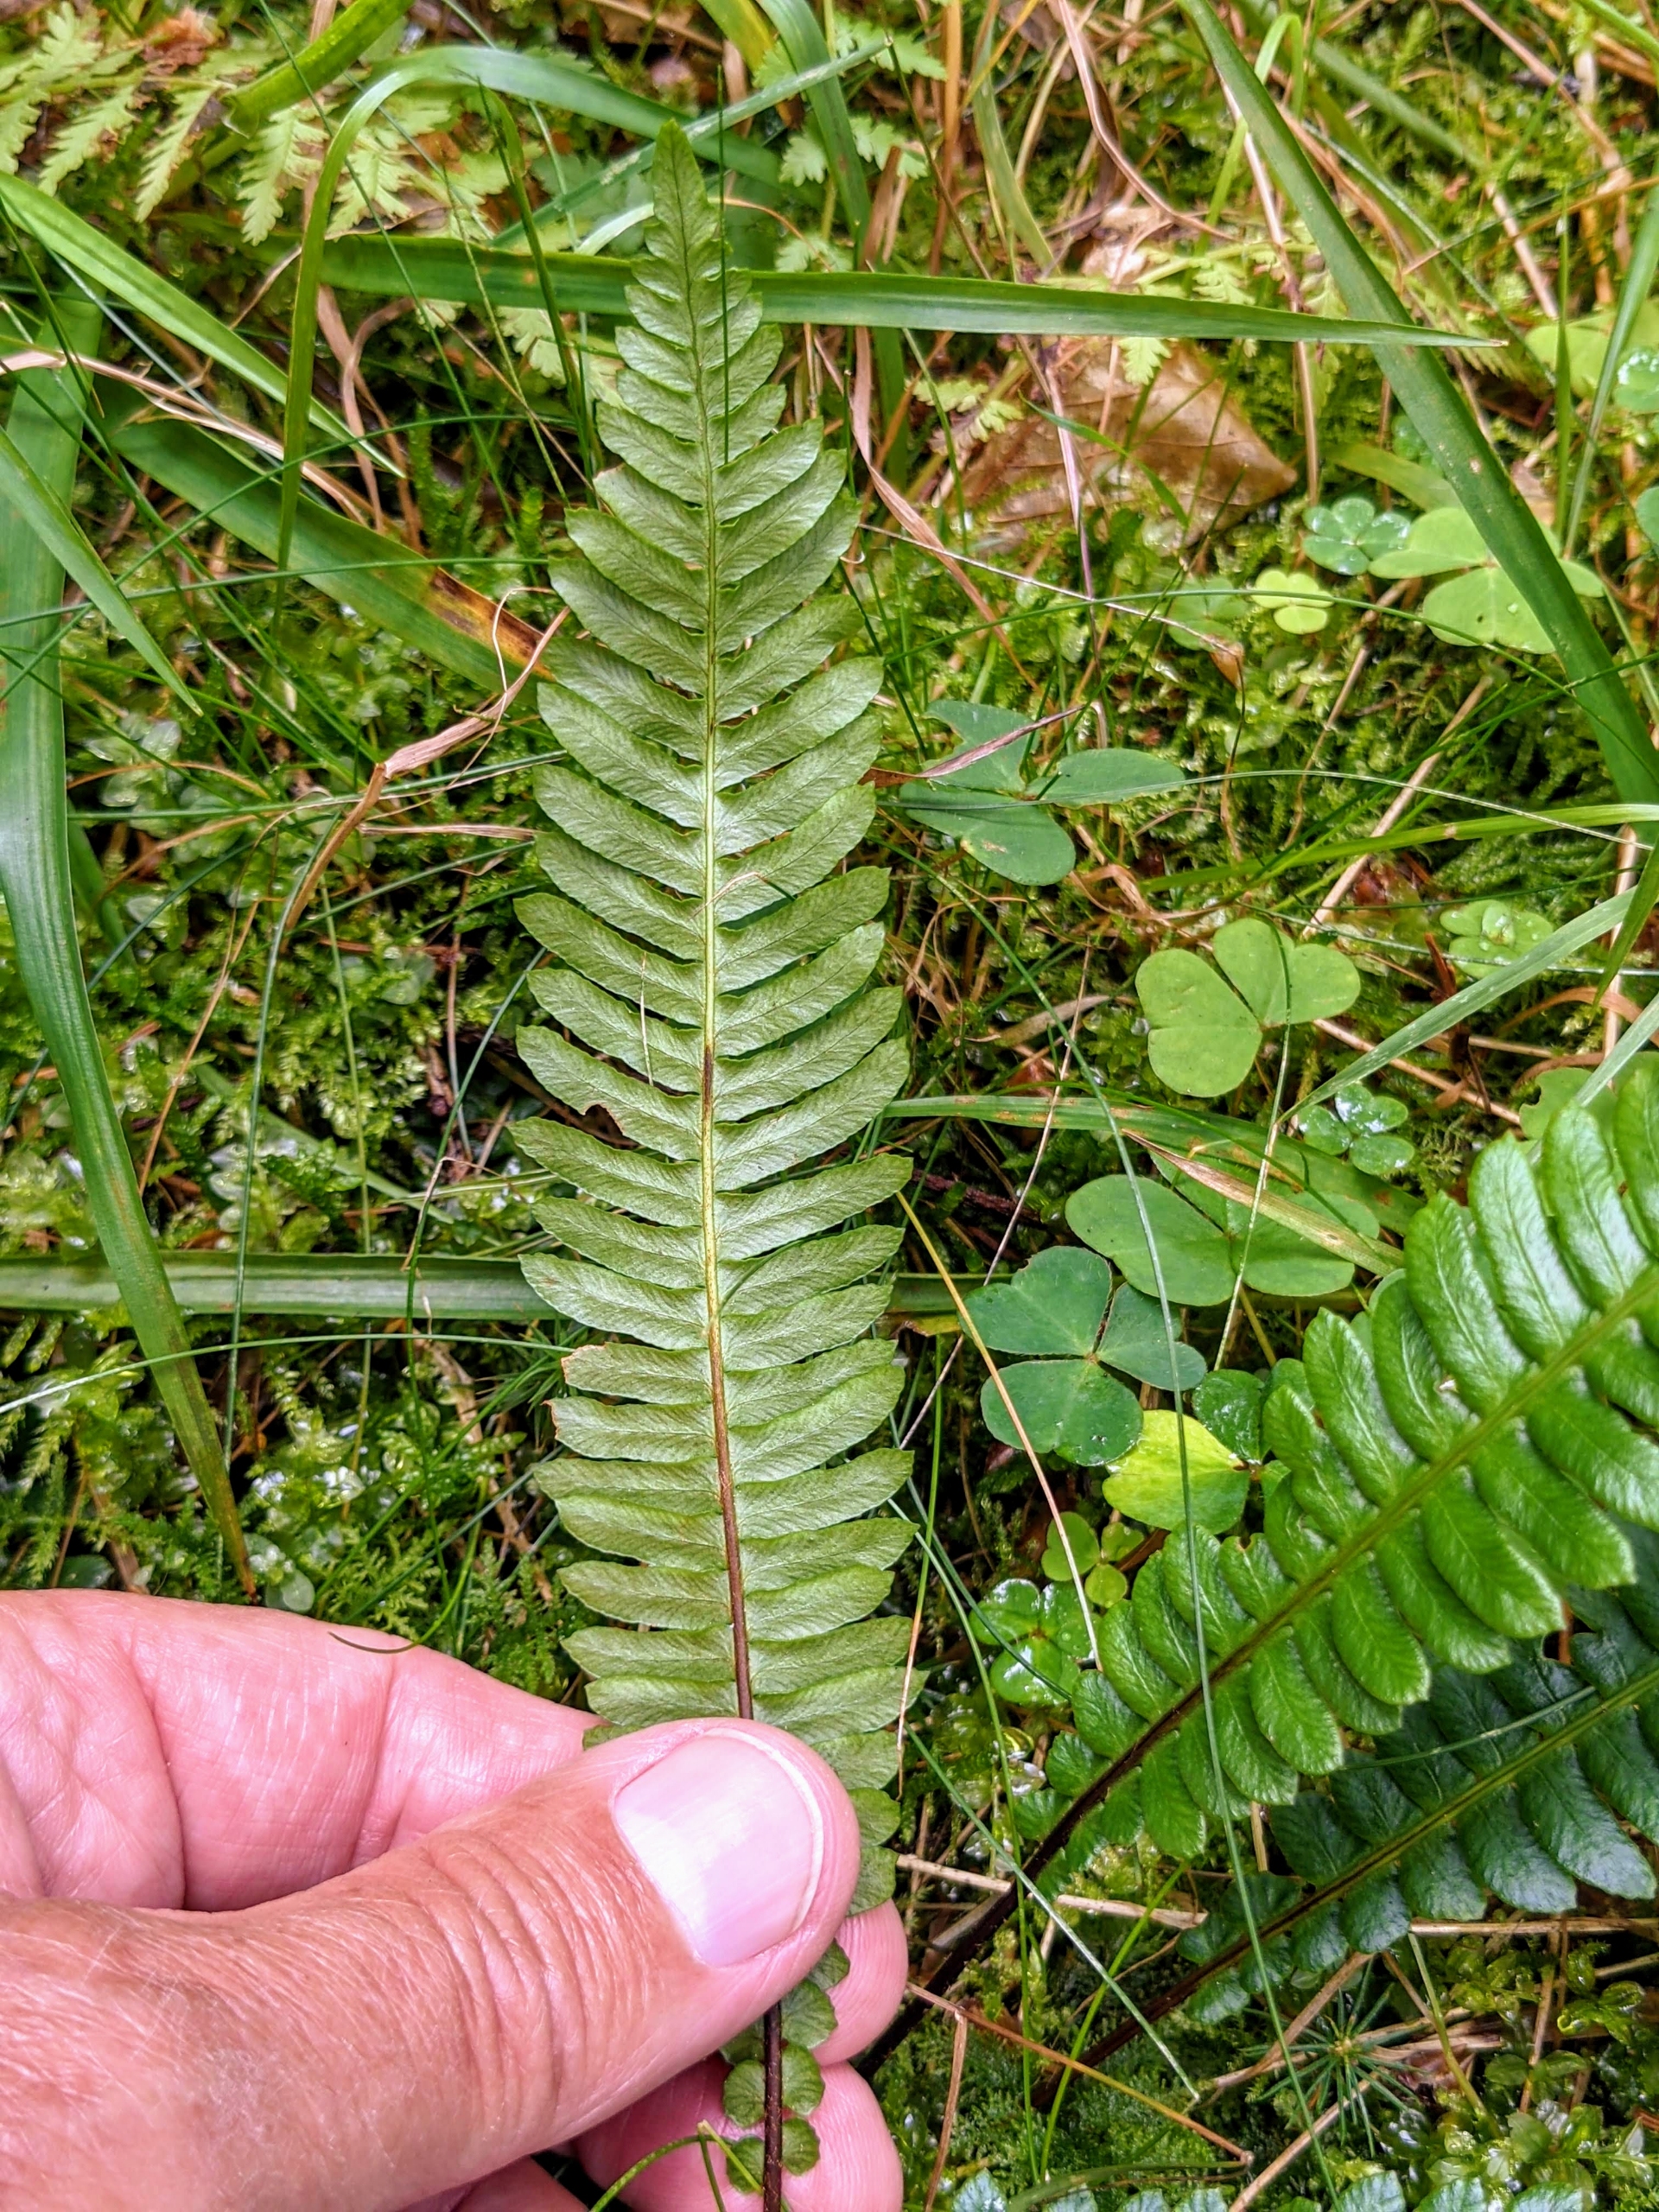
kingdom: Plantae
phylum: Tracheophyta
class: Polypodiopsida
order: Polypodiales
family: Blechnaceae
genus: Struthiopteris
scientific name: Struthiopteris spicant
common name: Kambregne
